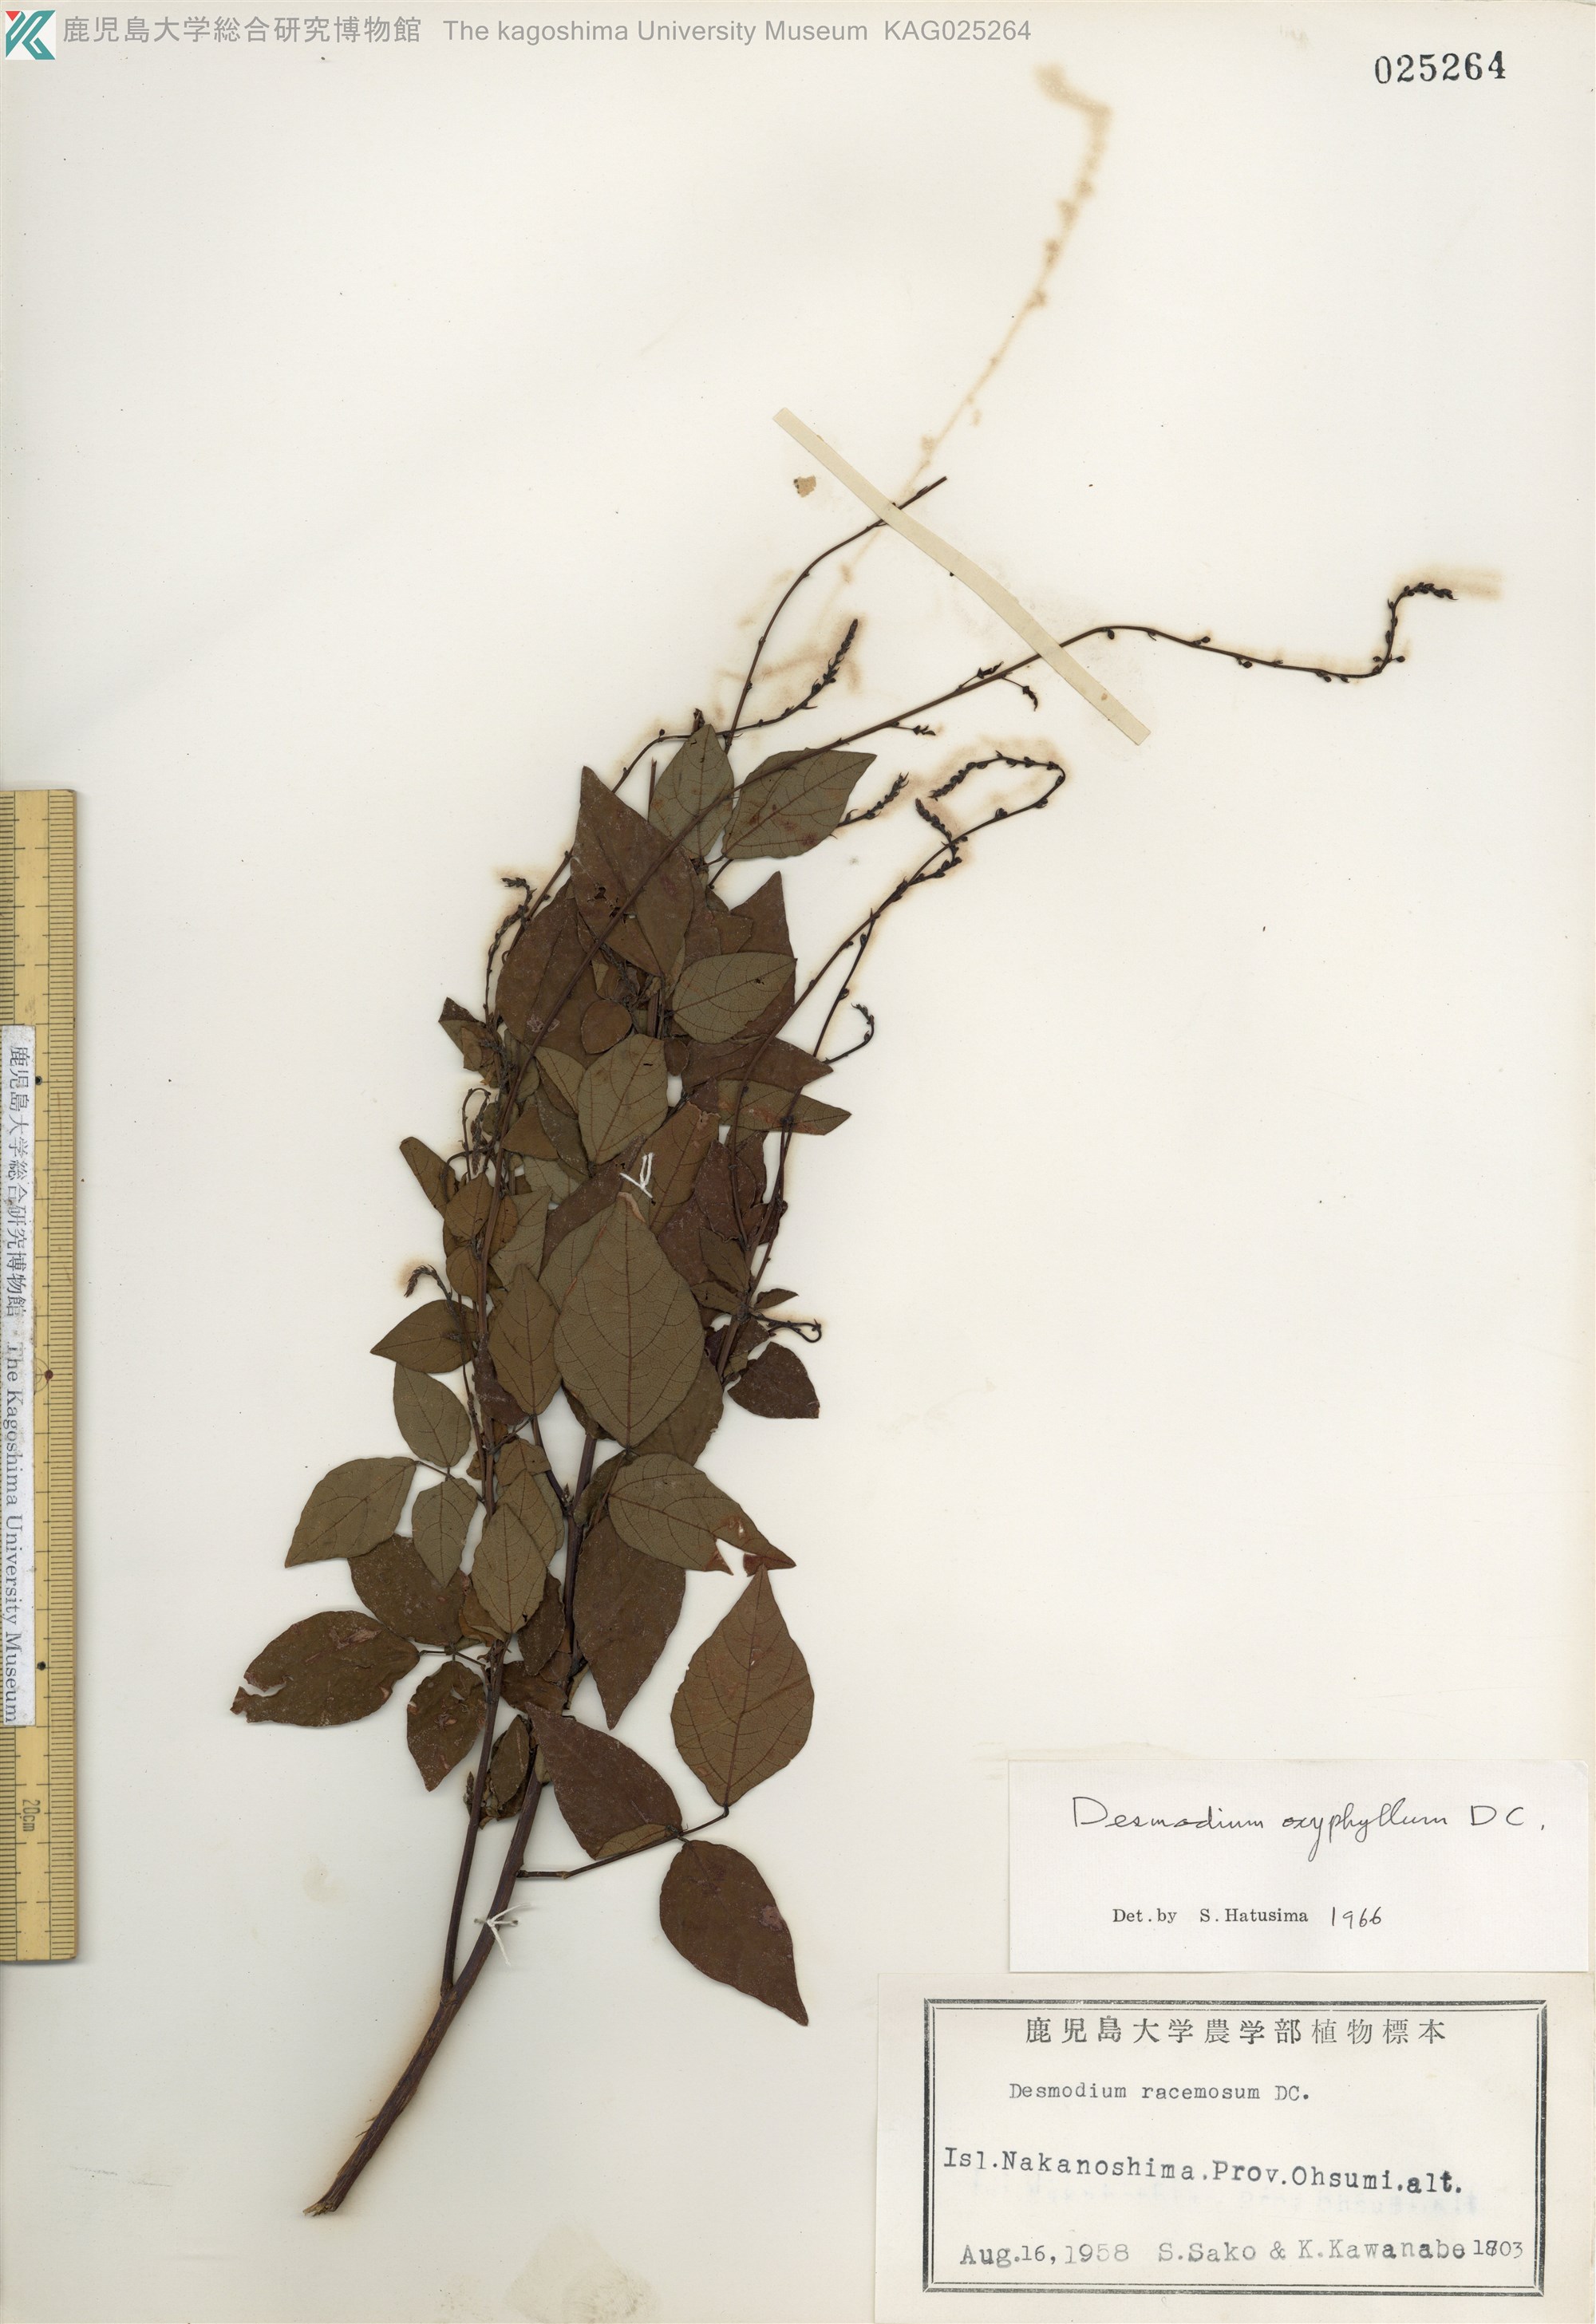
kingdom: Plantae
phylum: Tracheophyta
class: Magnoliopsida
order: Fabales
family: Fabaceae
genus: Hylodesmum
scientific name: Hylodesmum podocarpum
